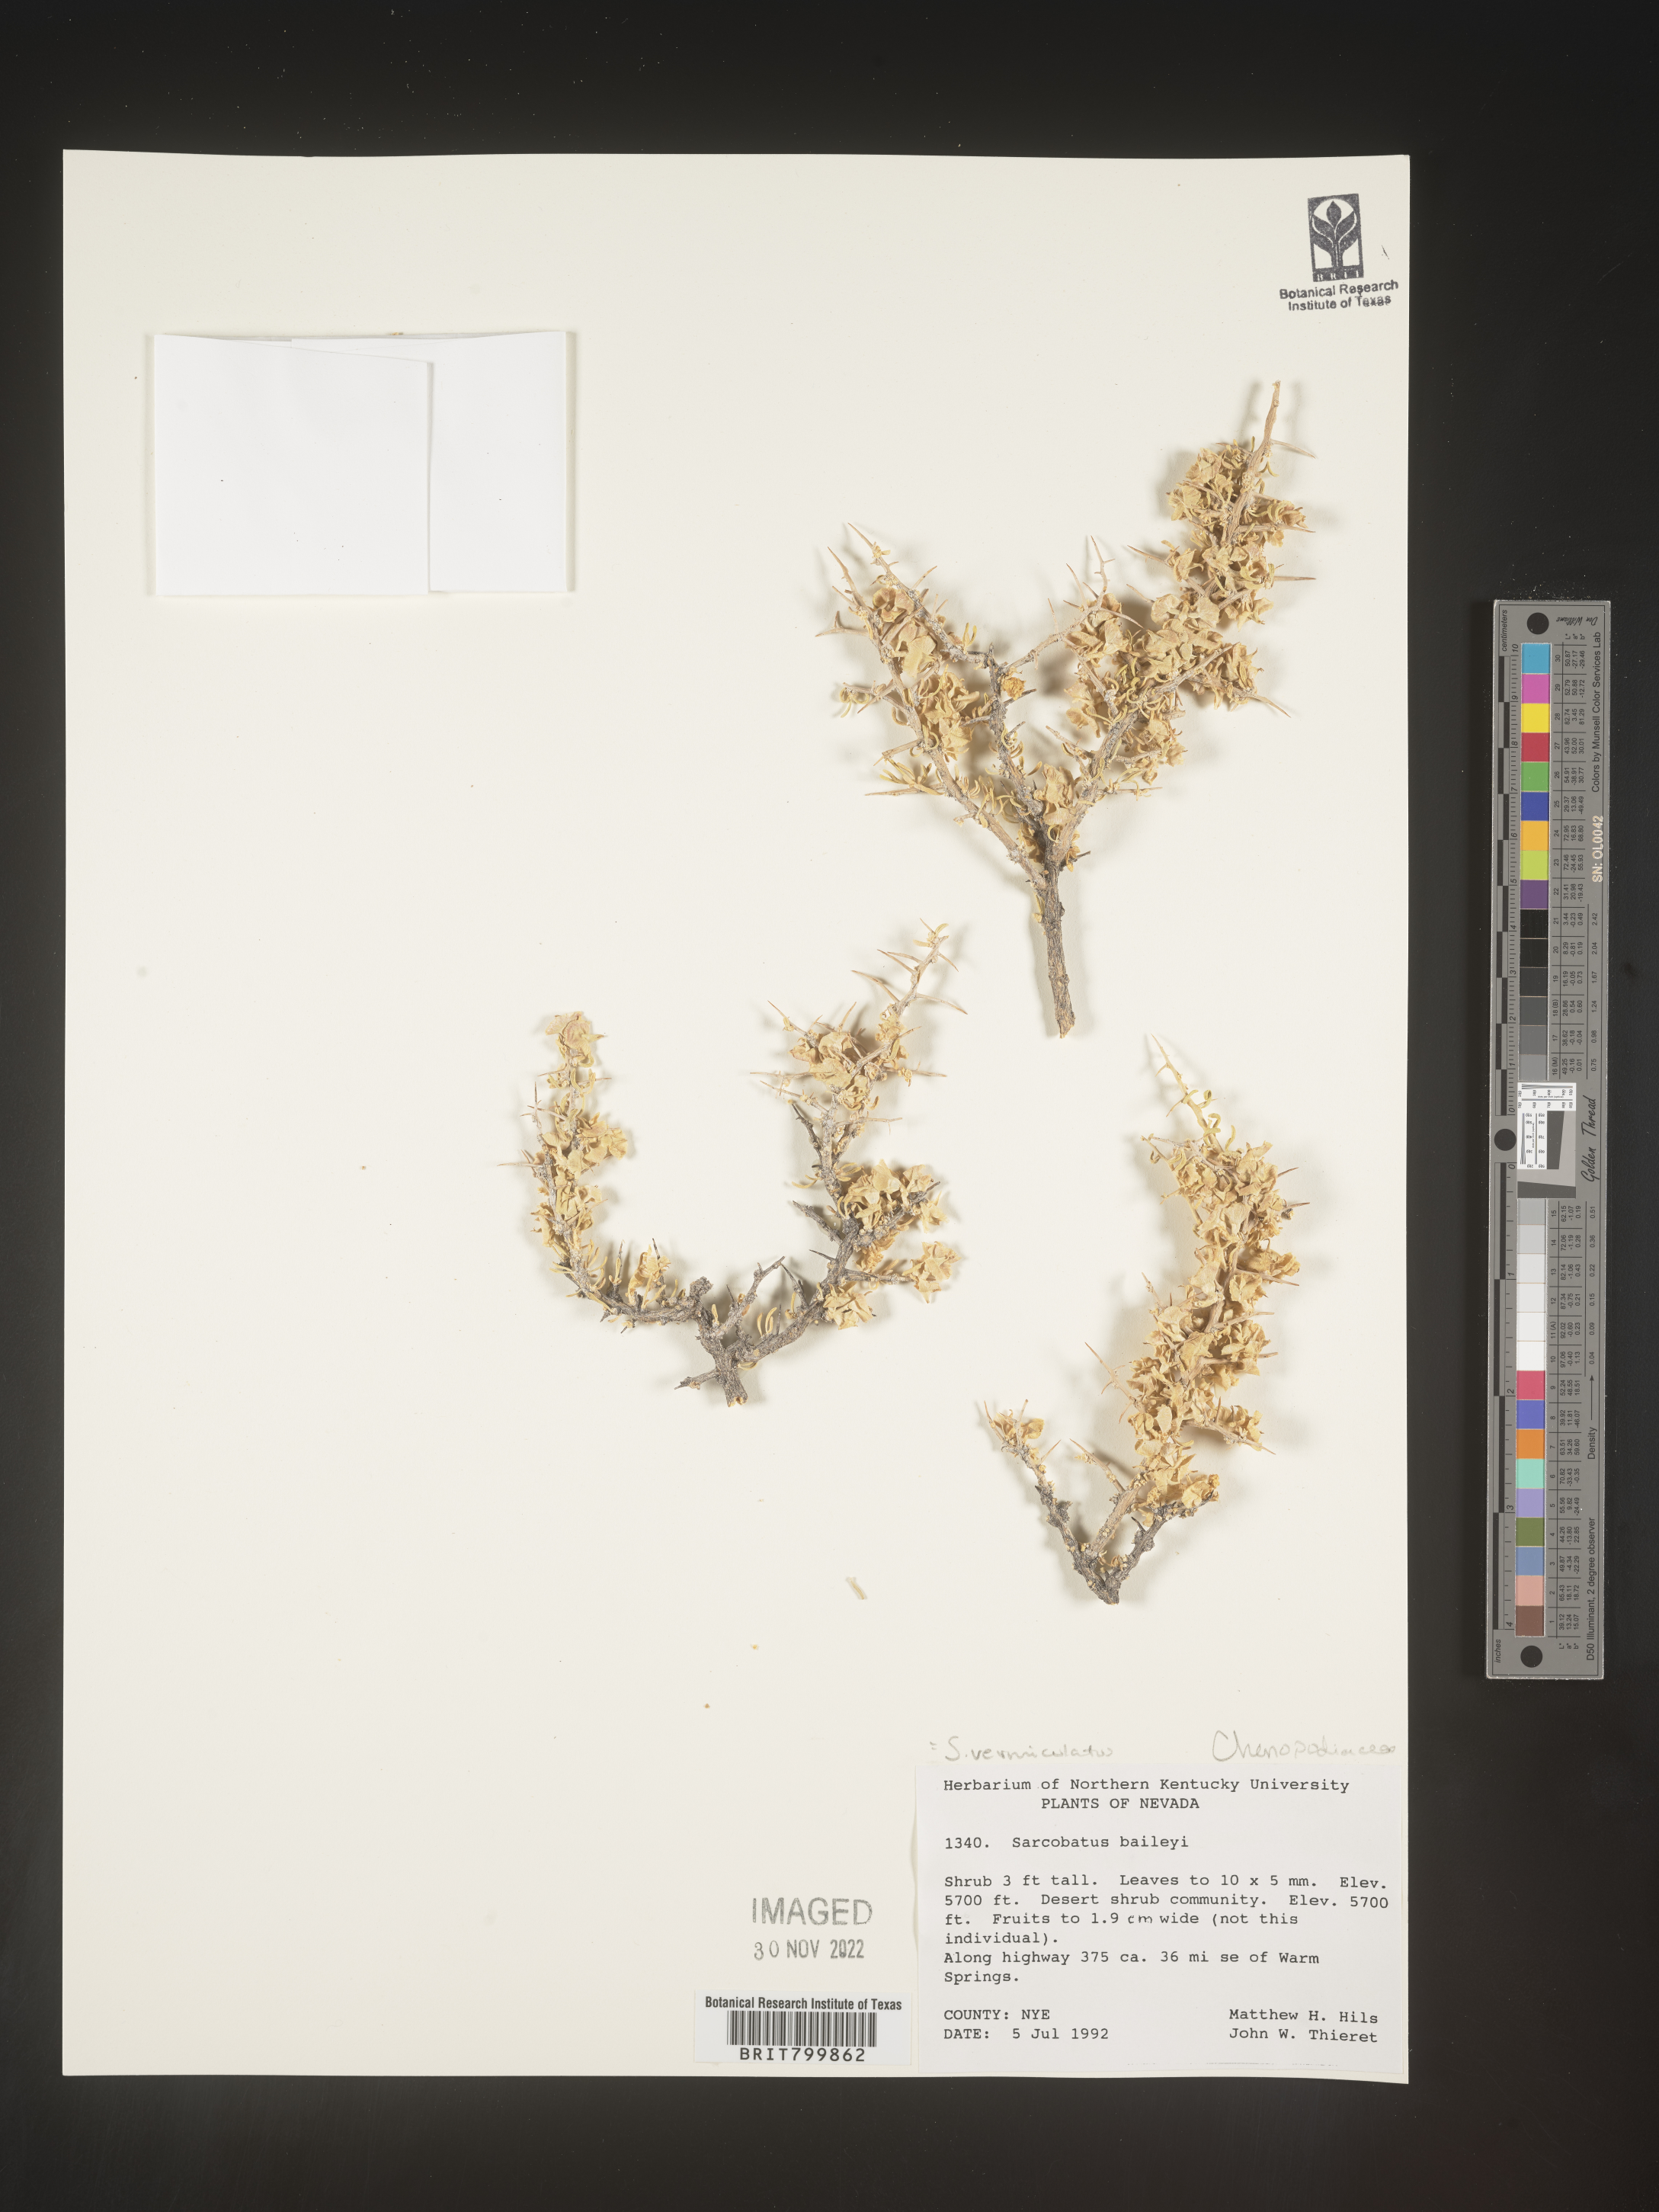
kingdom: Plantae
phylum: Tracheophyta
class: Magnoliopsida
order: Caryophyllales
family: Sarcobataceae
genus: Sarcobatus
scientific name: Sarcobatus vermiculatus
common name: Greasewood
